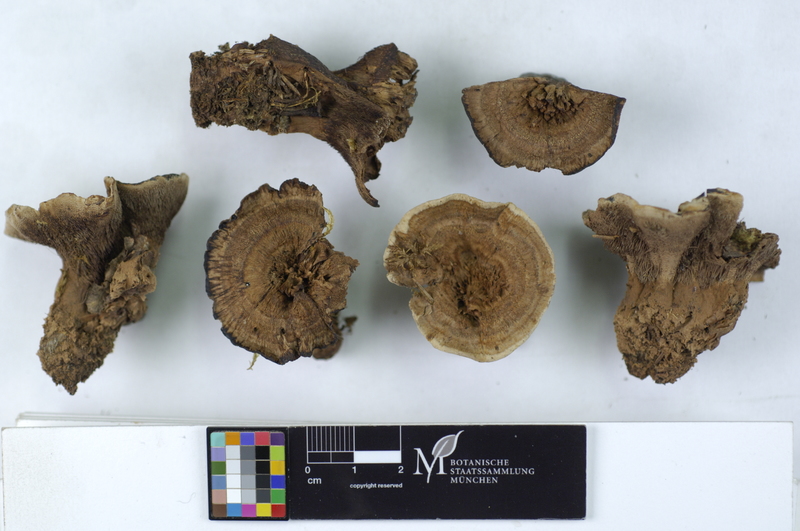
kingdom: Fungi
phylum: Basidiomycota
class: Agaricomycetes
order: Thelephorales
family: Bankeraceae
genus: Hydnellum
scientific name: Hydnellum concrescens
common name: Zoned tooth
